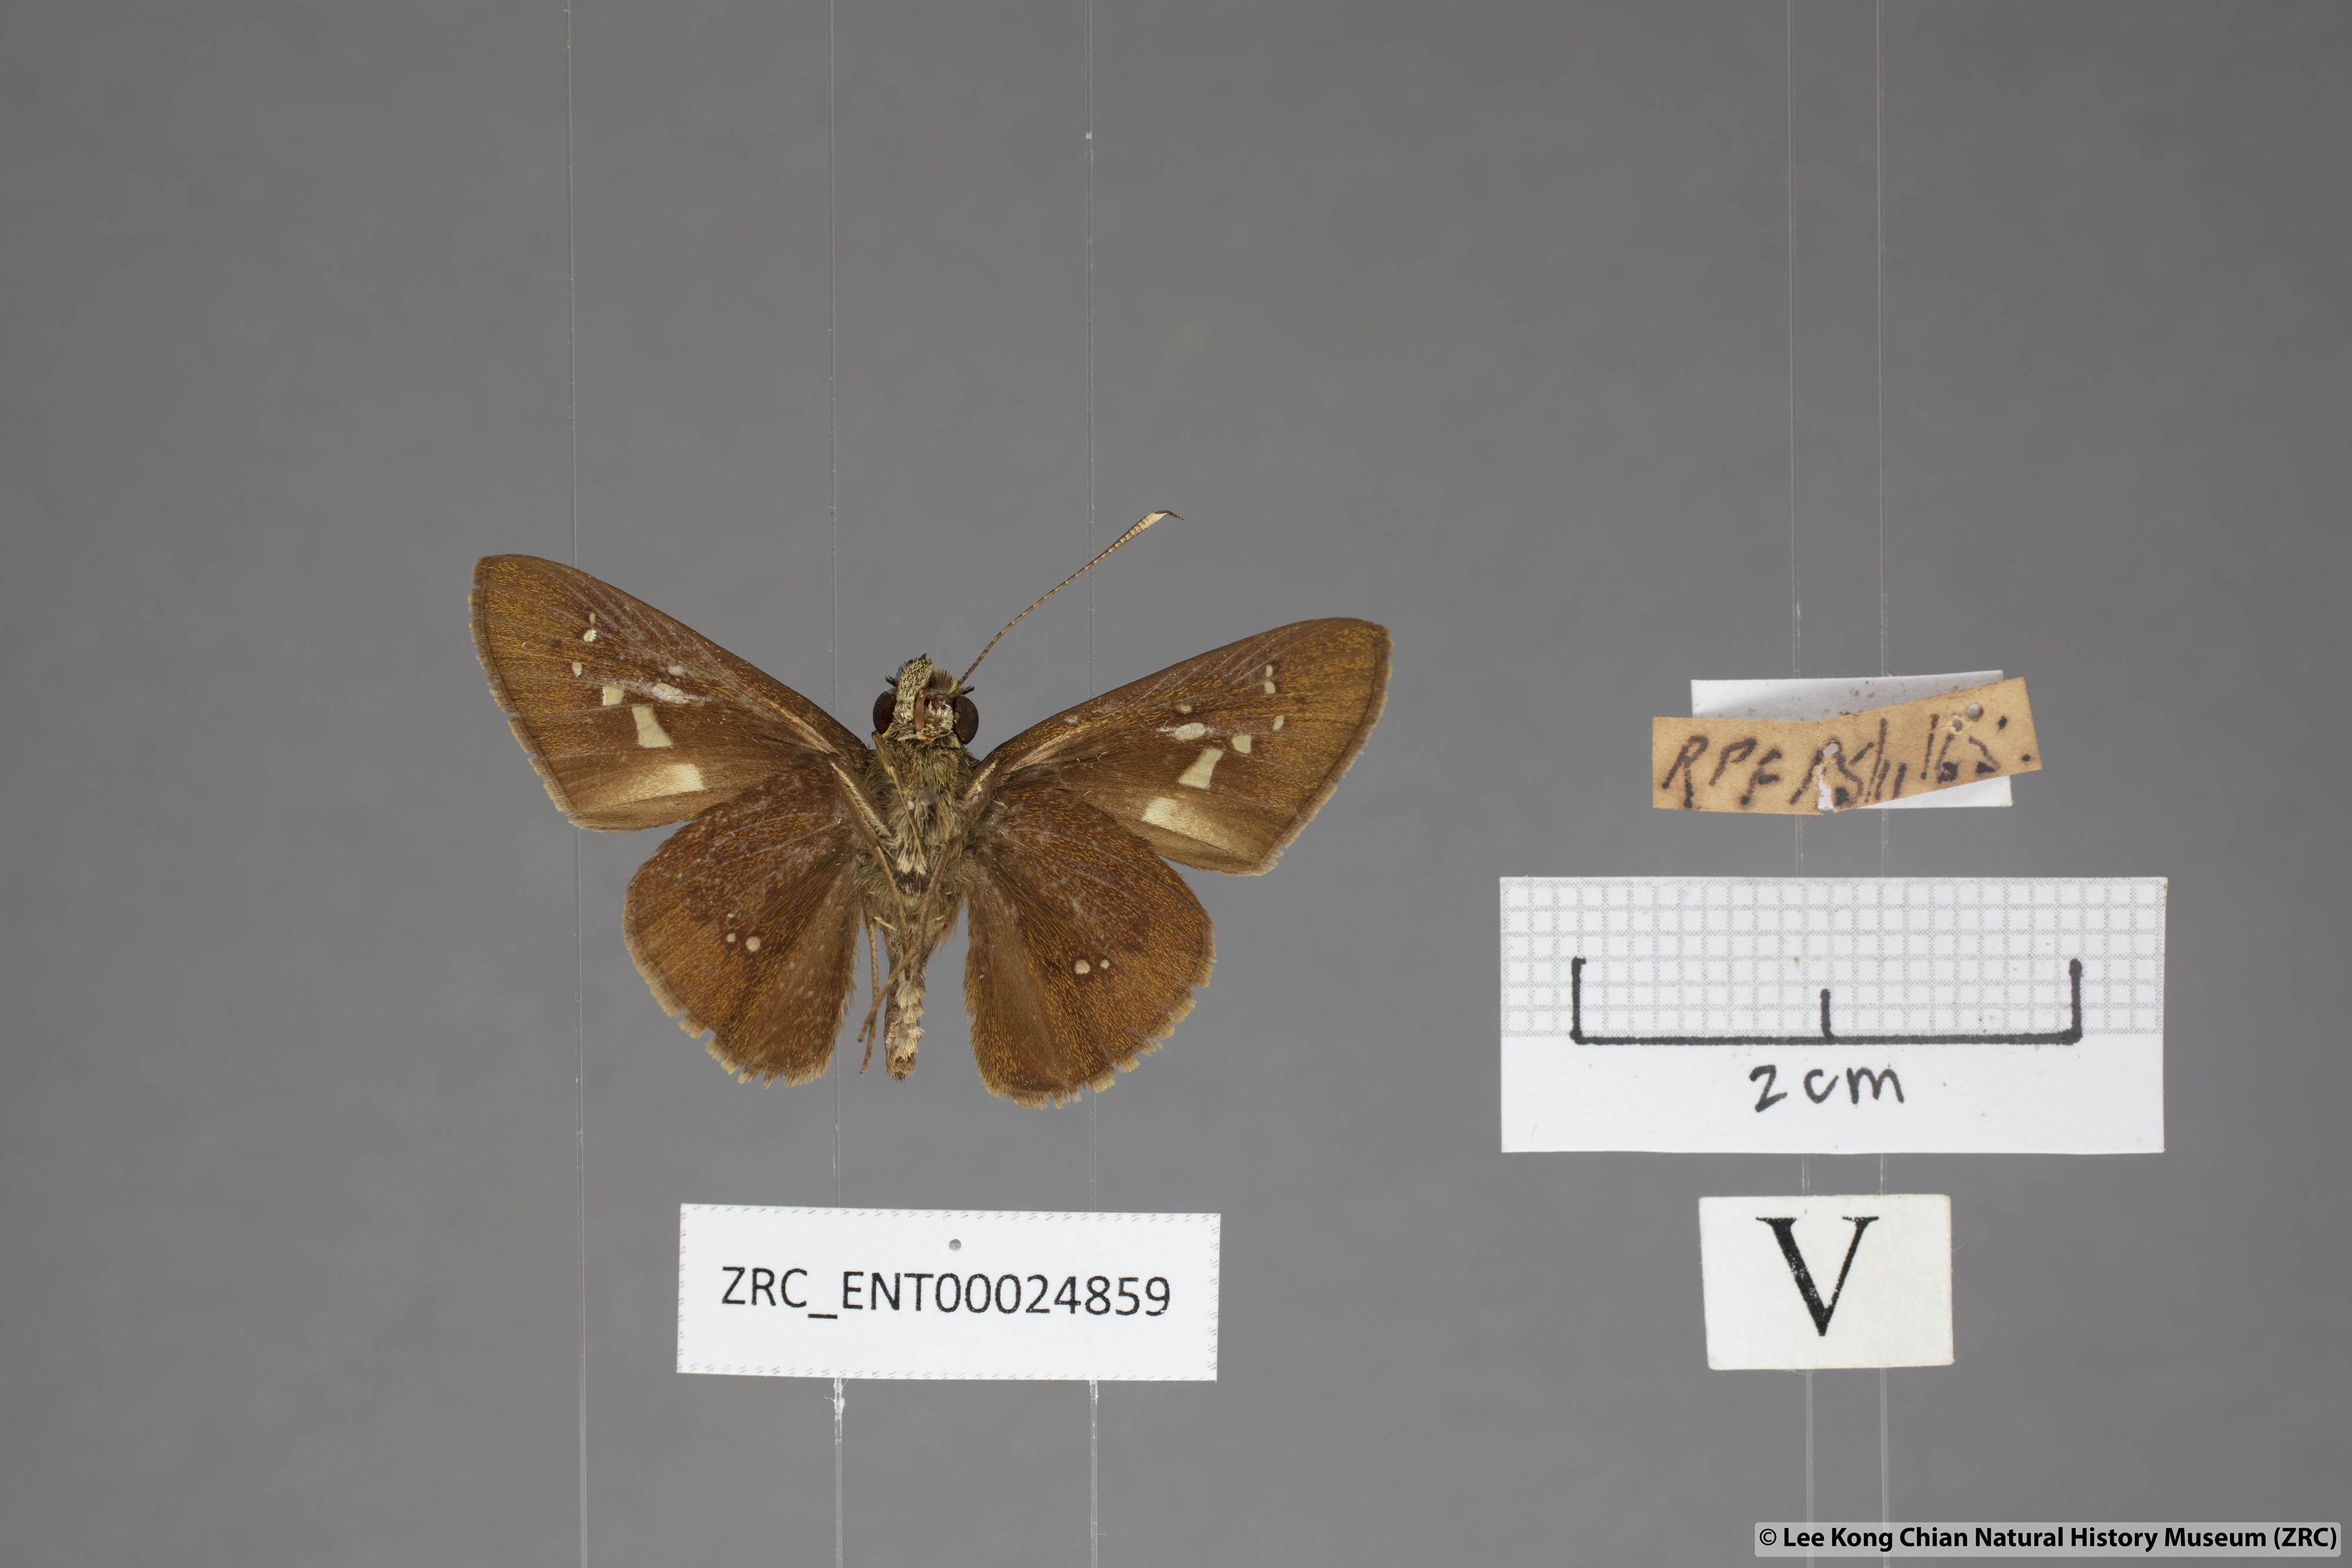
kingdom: Animalia
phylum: Arthropoda
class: Insecta
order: Lepidoptera
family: Hesperiidae
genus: Isma
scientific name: Isma miosticta
